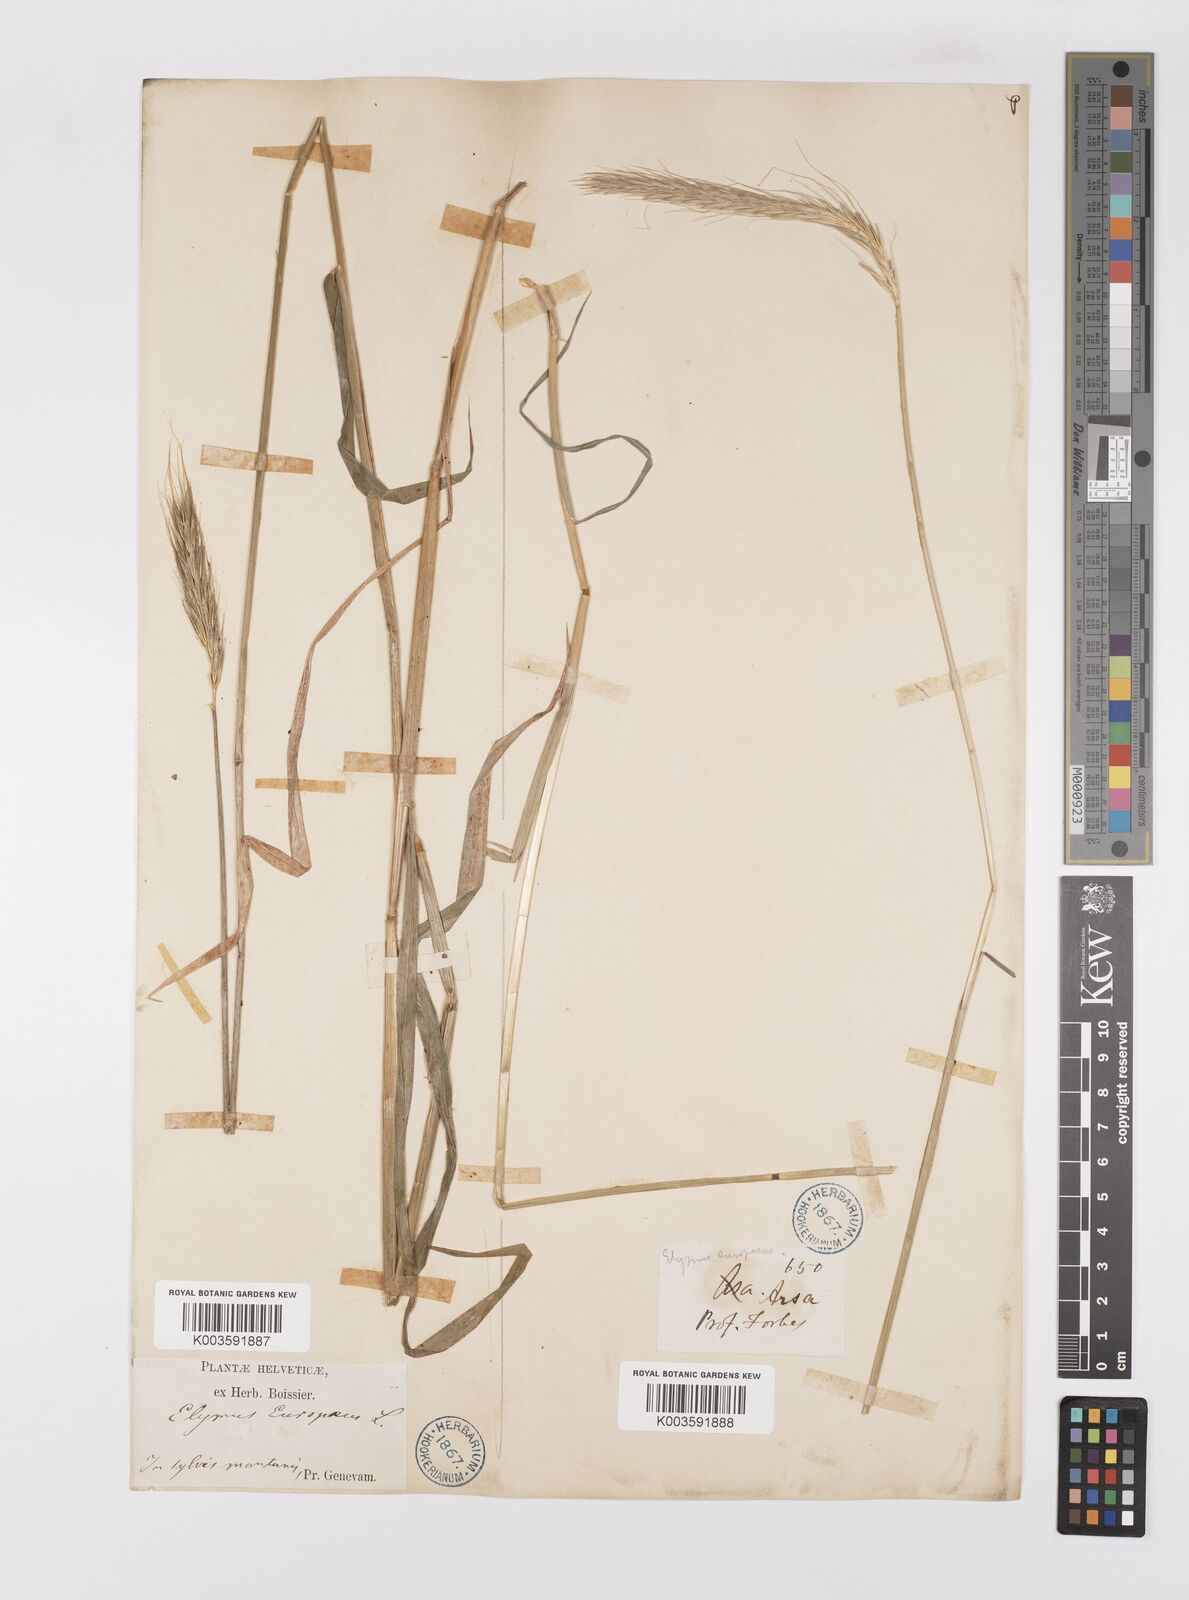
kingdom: Plantae
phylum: Tracheophyta
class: Liliopsida
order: Poales
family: Poaceae
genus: Hordelymus
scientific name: Hordelymus europaeus
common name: Wood-barley
